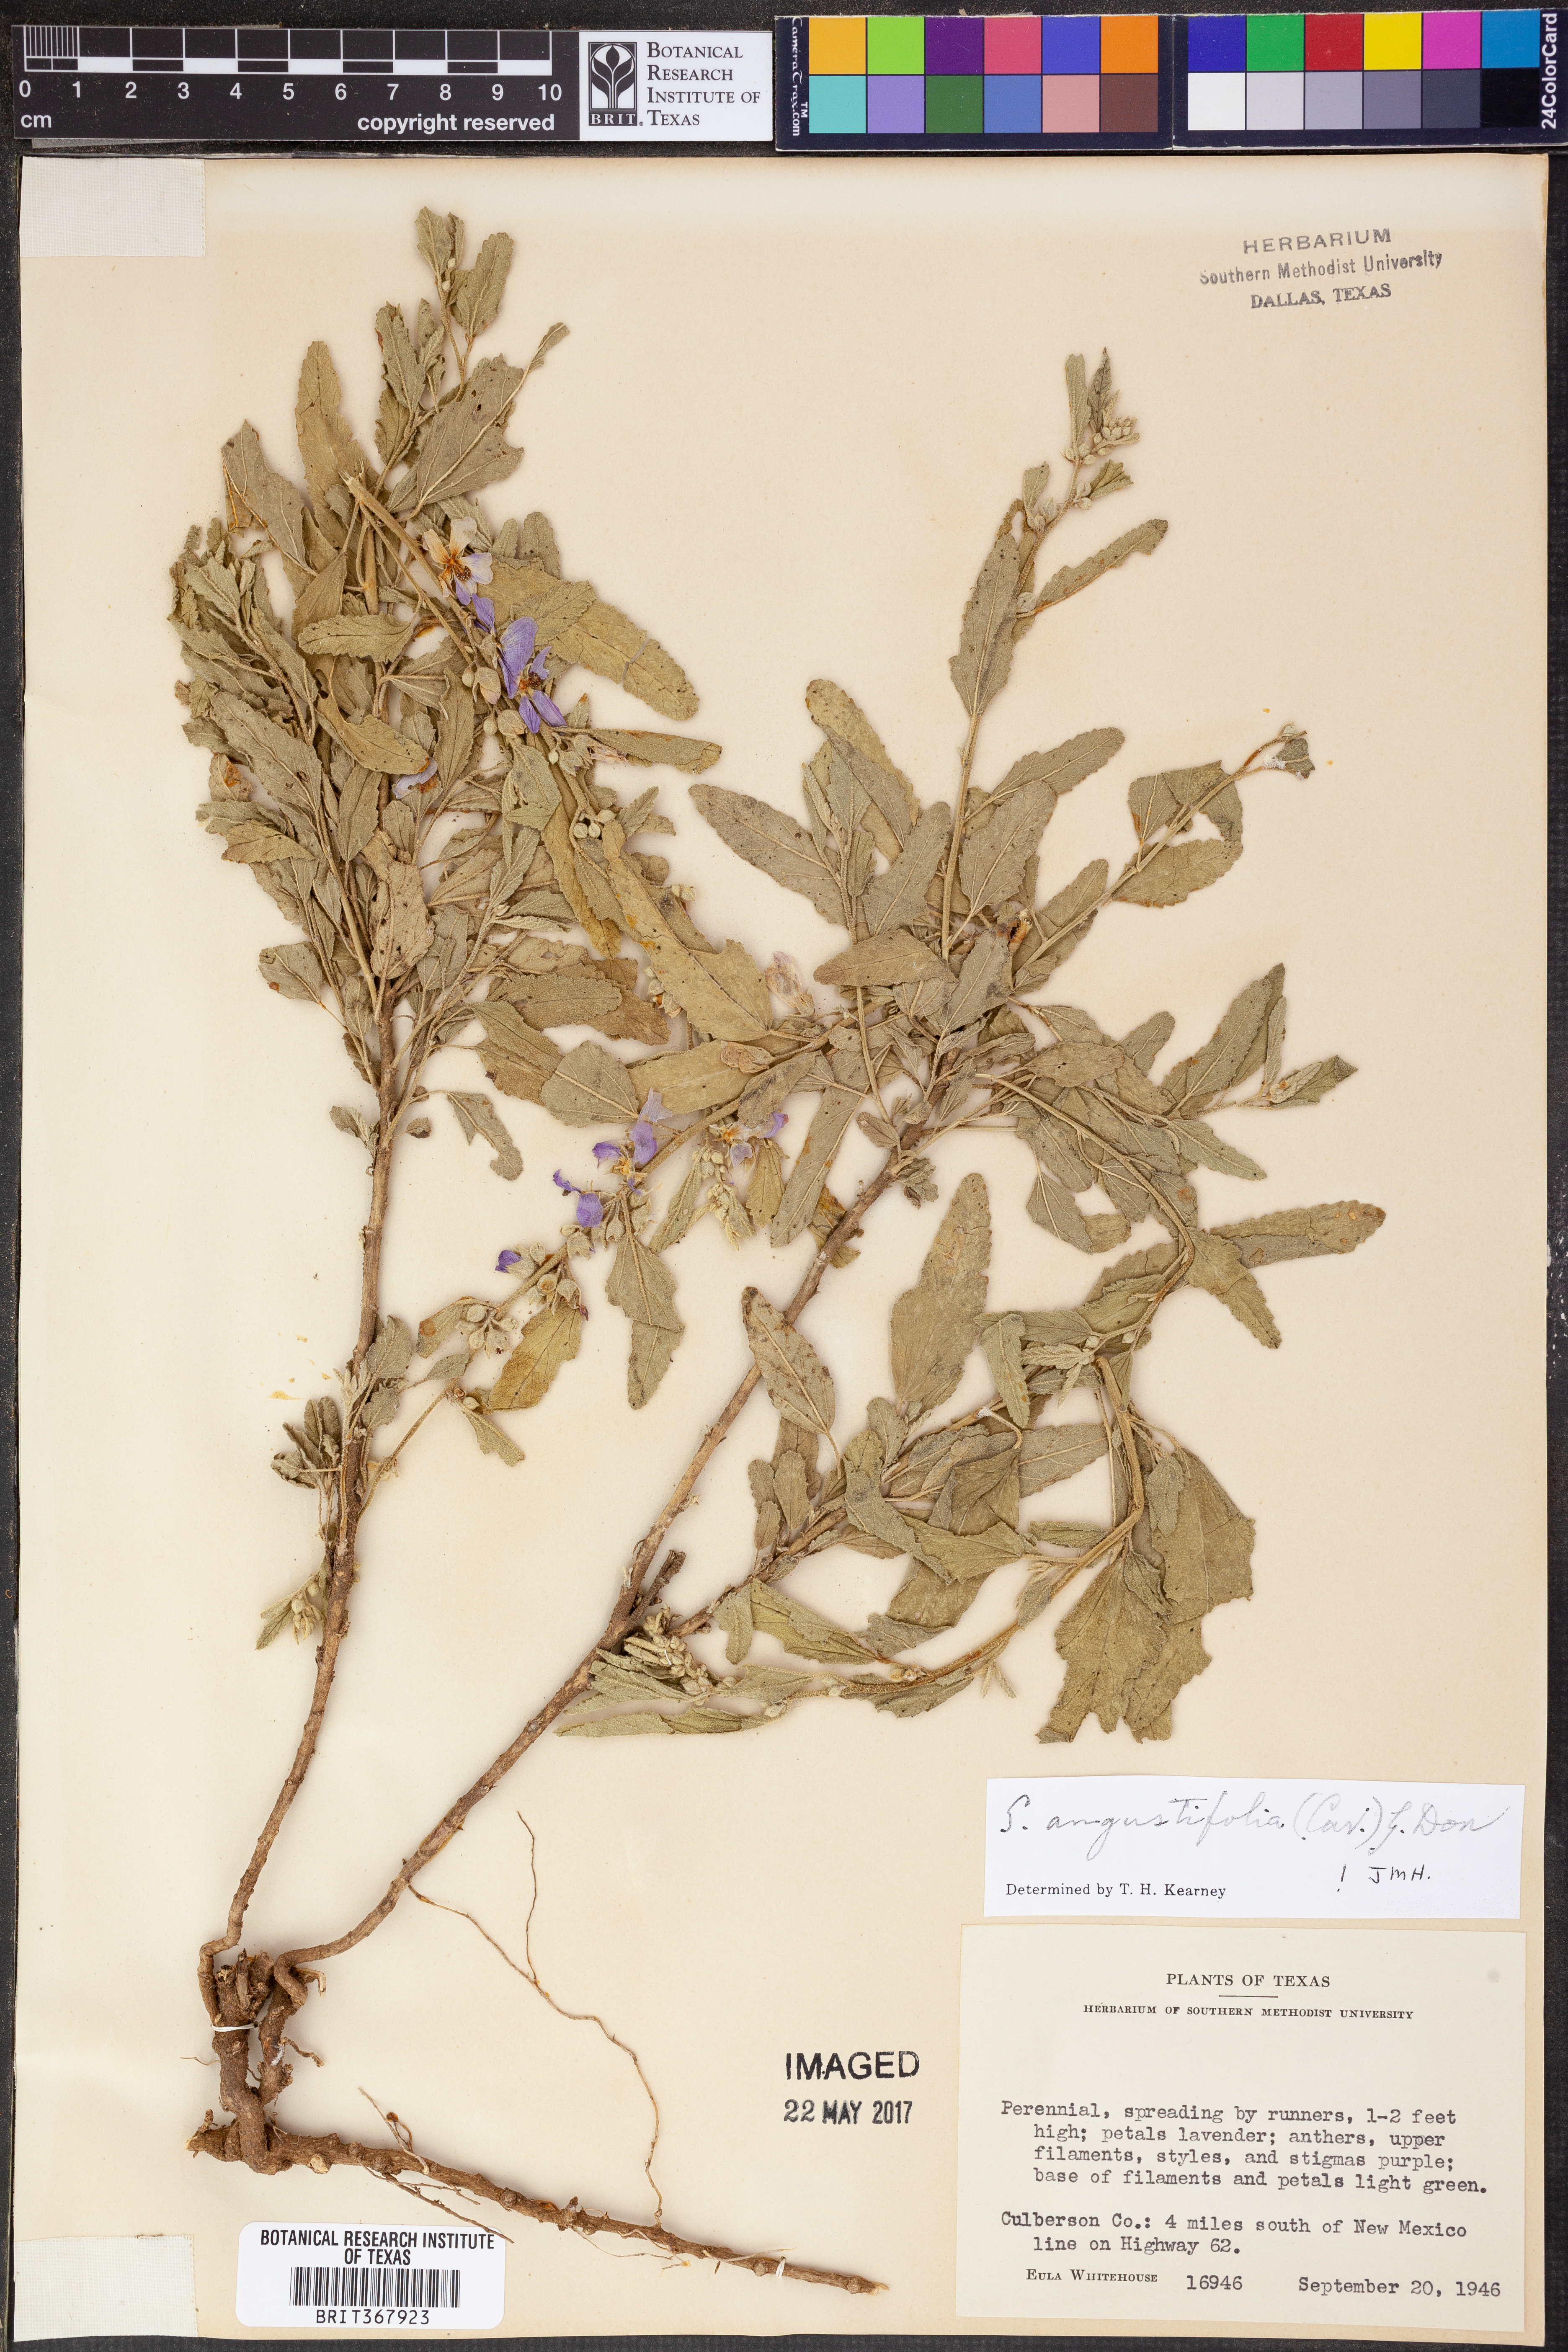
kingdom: Plantae
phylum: Tracheophyta
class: Magnoliopsida
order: Malvales
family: Malvaceae
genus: Sphaeralcea
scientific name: Sphaeralcea angustifolia
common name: Copper globe-mallow
